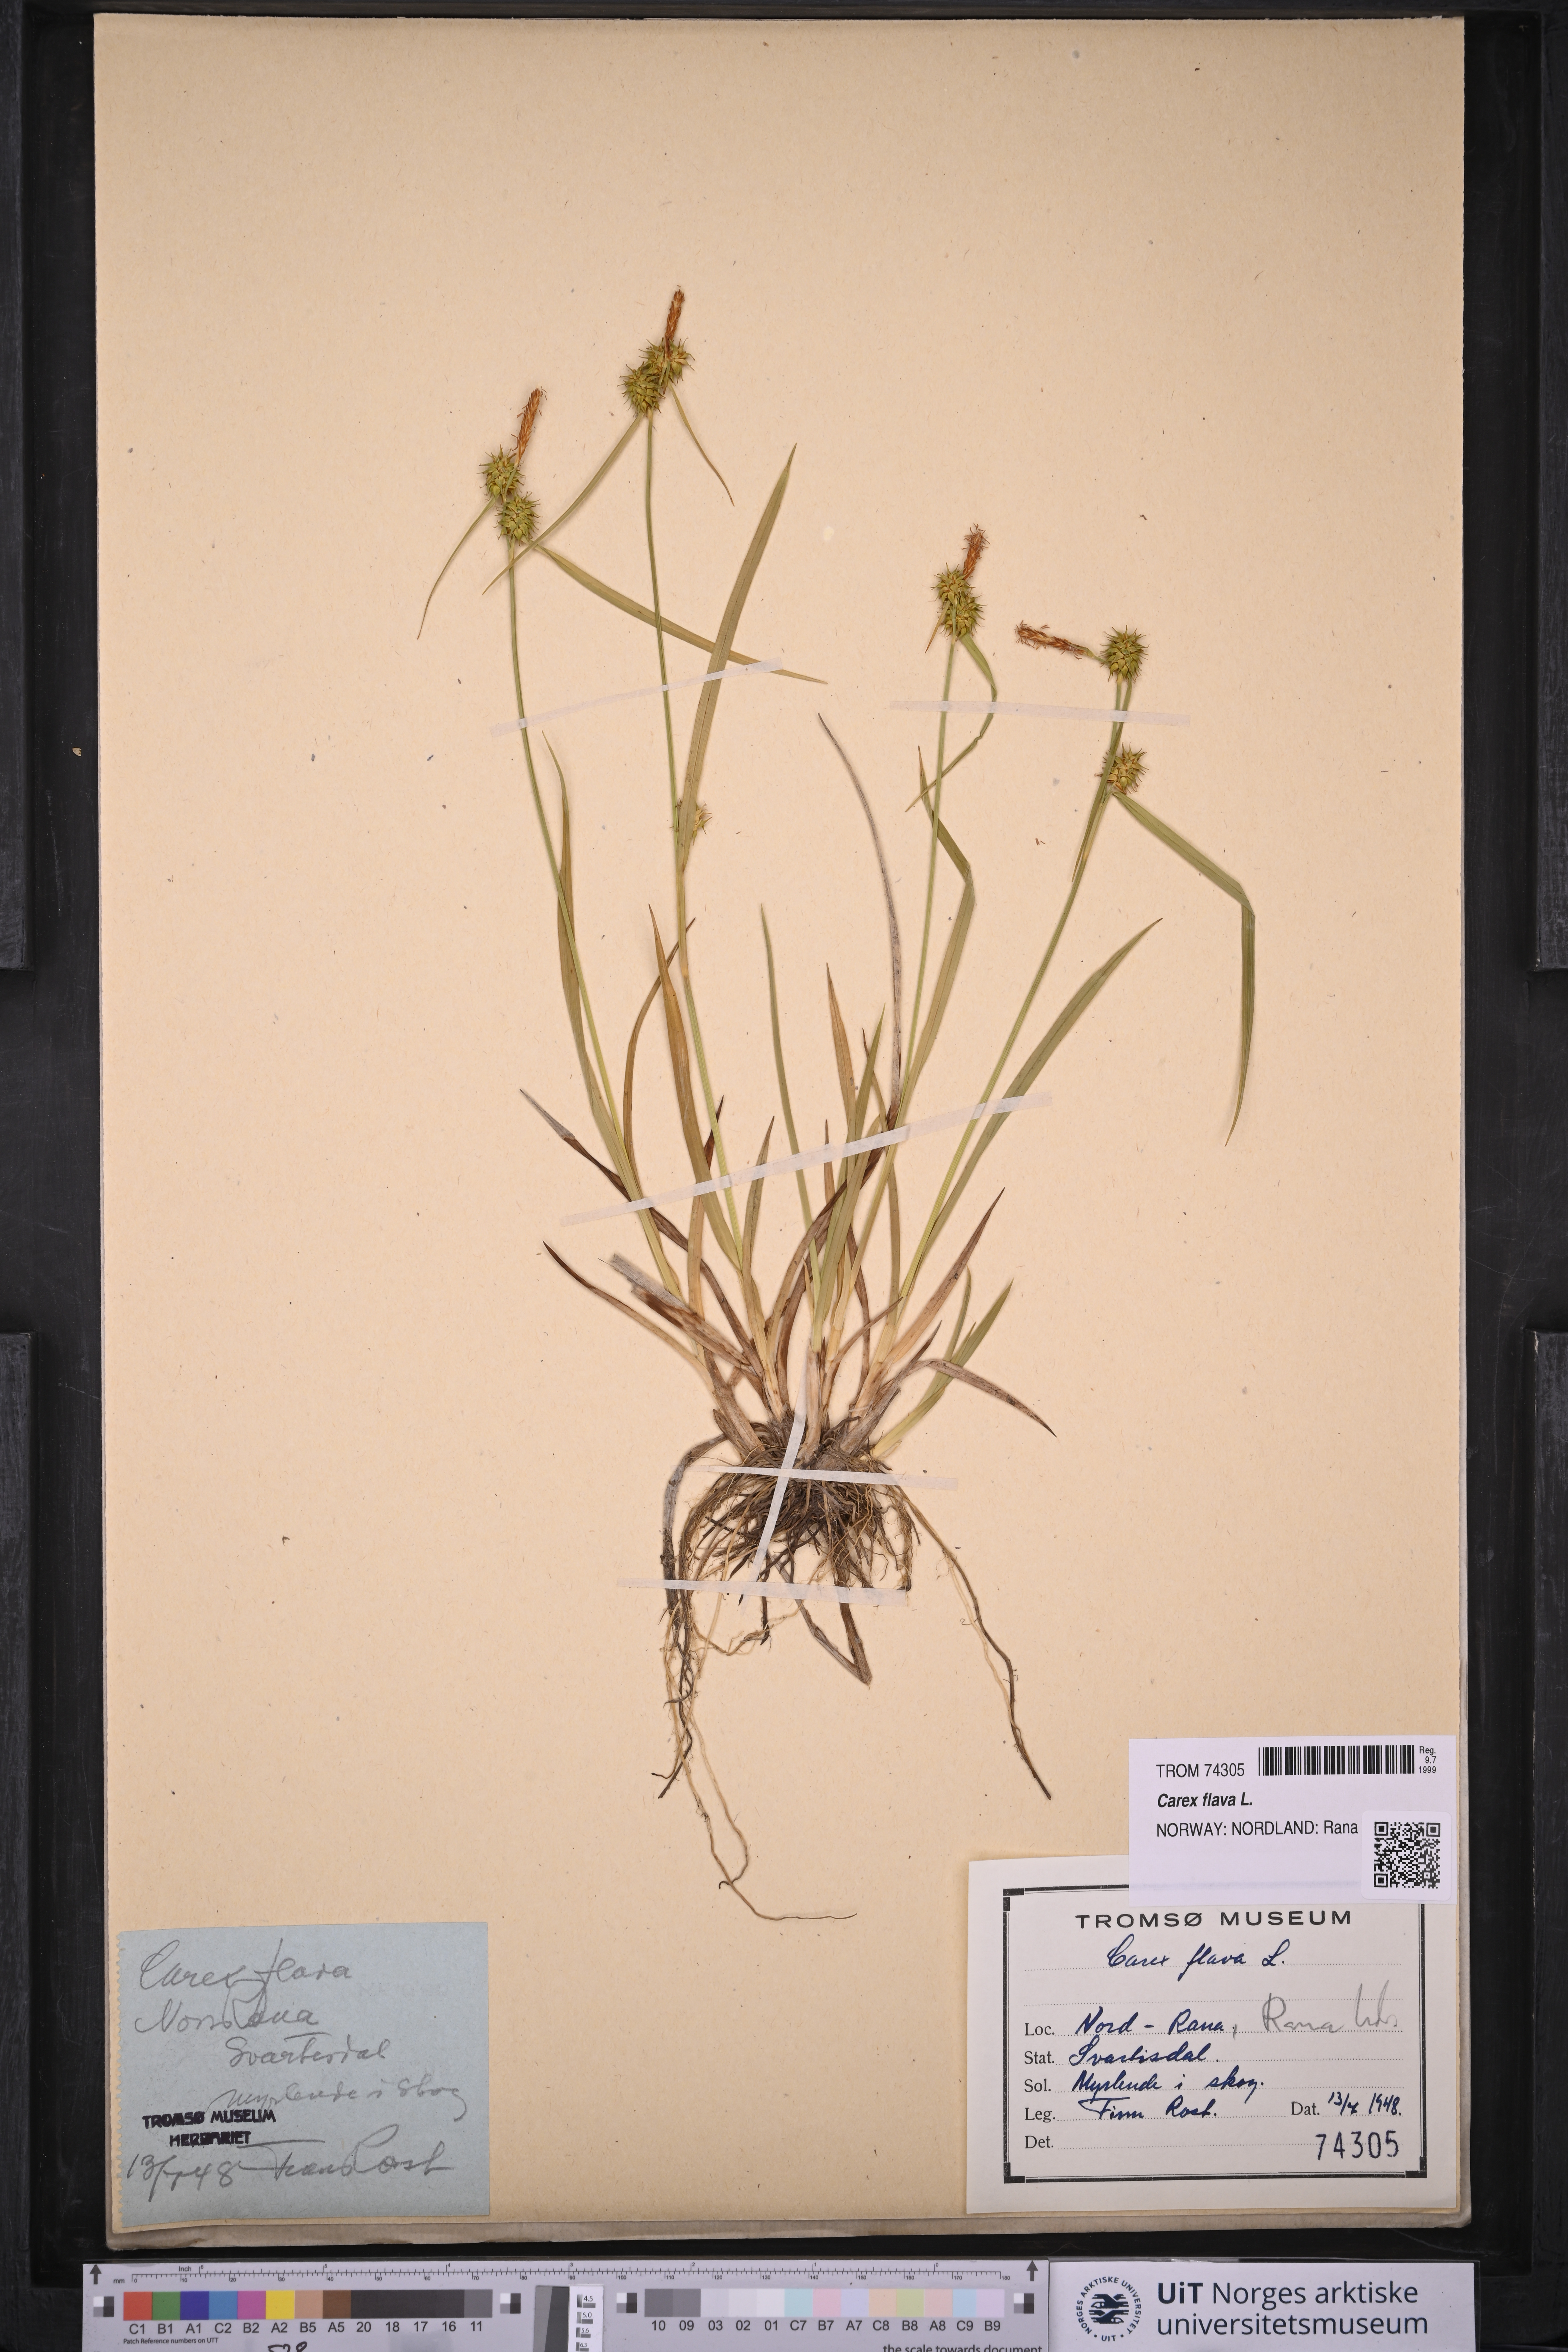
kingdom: Plantae
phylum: Tracheophyta
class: Liliopsida
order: Poales
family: Cyperaceae
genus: Carex
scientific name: Carex flava
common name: Large yellow-sedge
